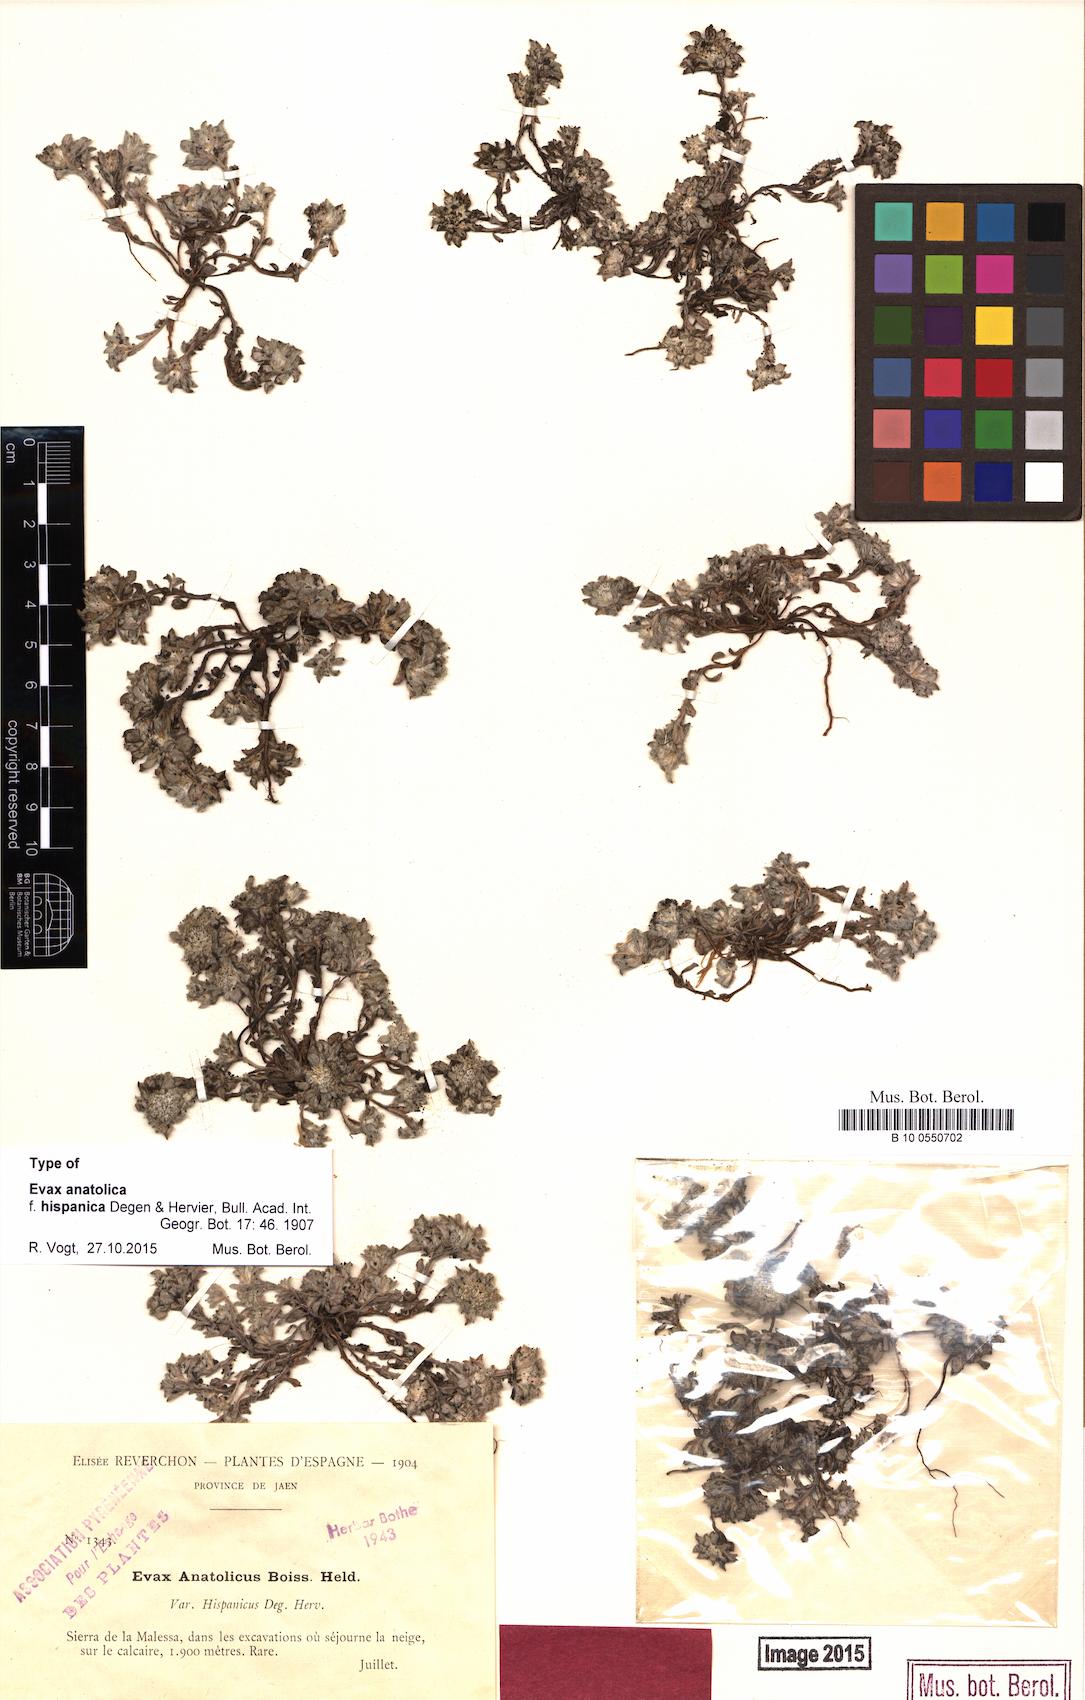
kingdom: Plantae
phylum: Tracheophyta
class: Magnoliopsida
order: Asterales
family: Asteraceae
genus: Filago
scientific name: Filago hispanica
